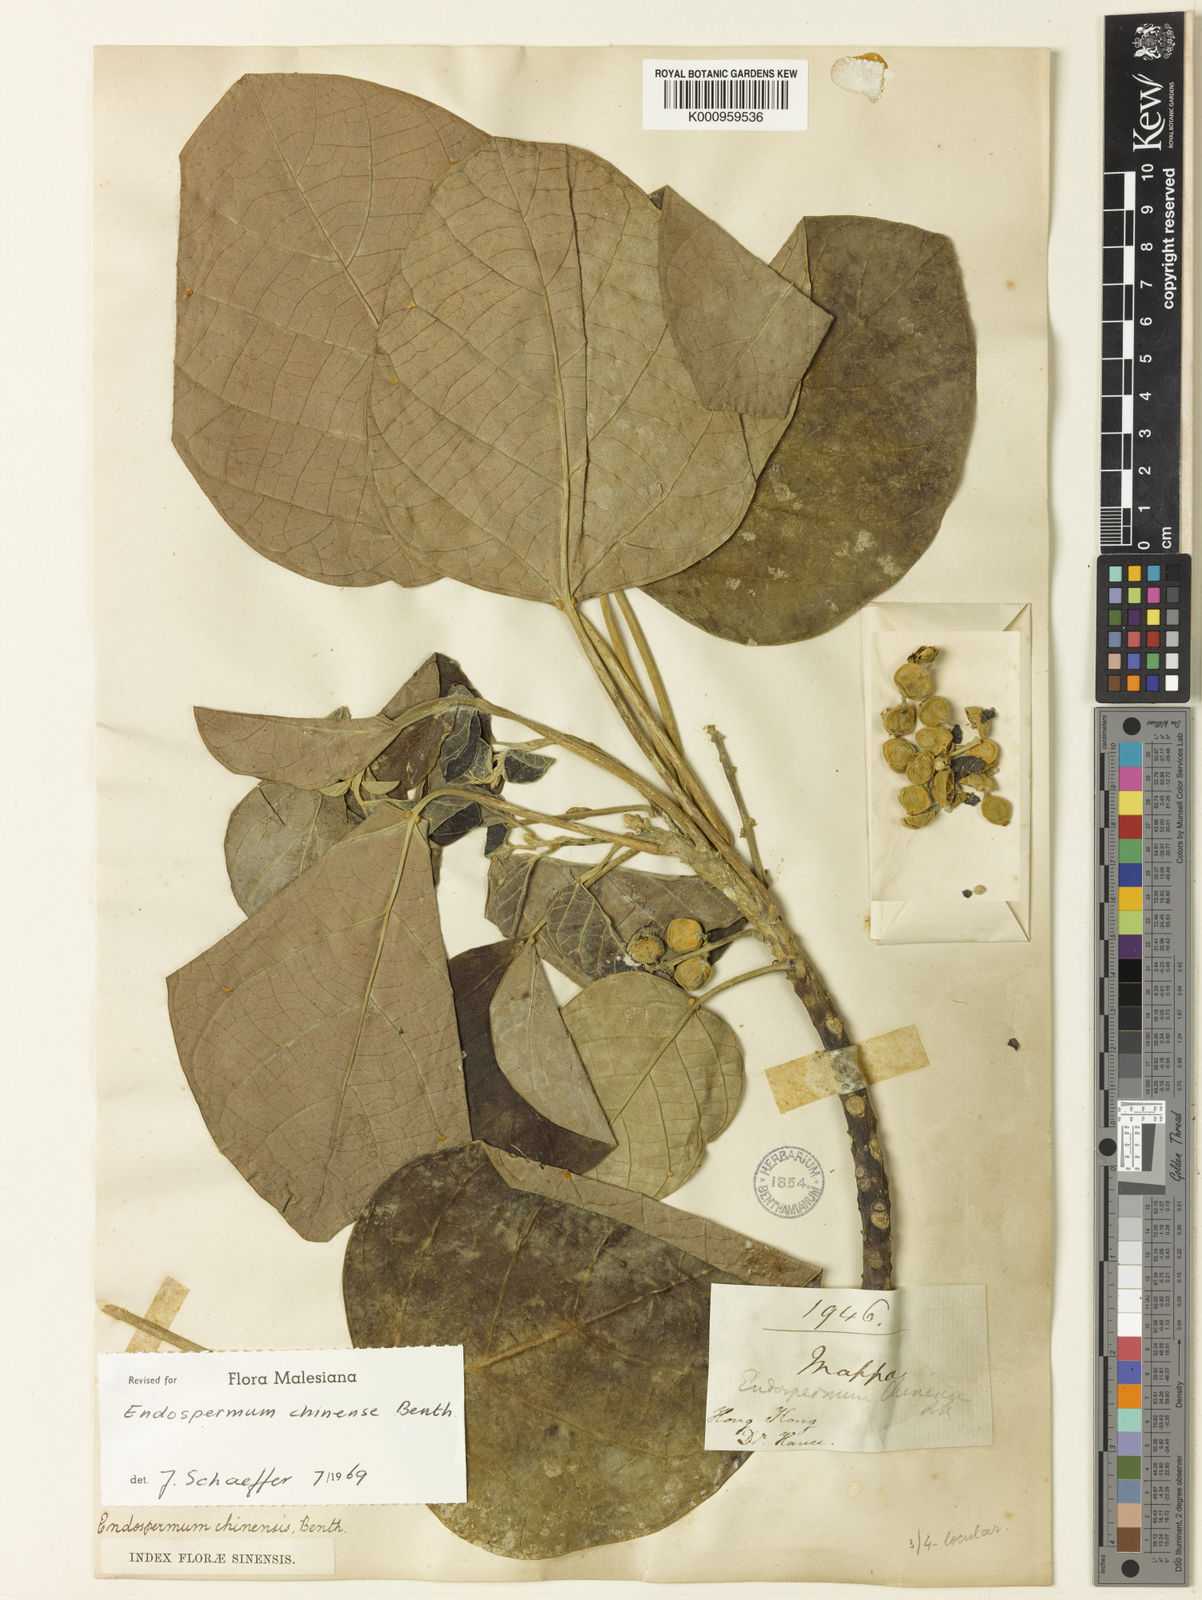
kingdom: Plantae
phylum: Tracheophyta
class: Magnoliopsida
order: Malpighiales
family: Euphorbiaceae
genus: Endospermum
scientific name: Endospermum chinense
